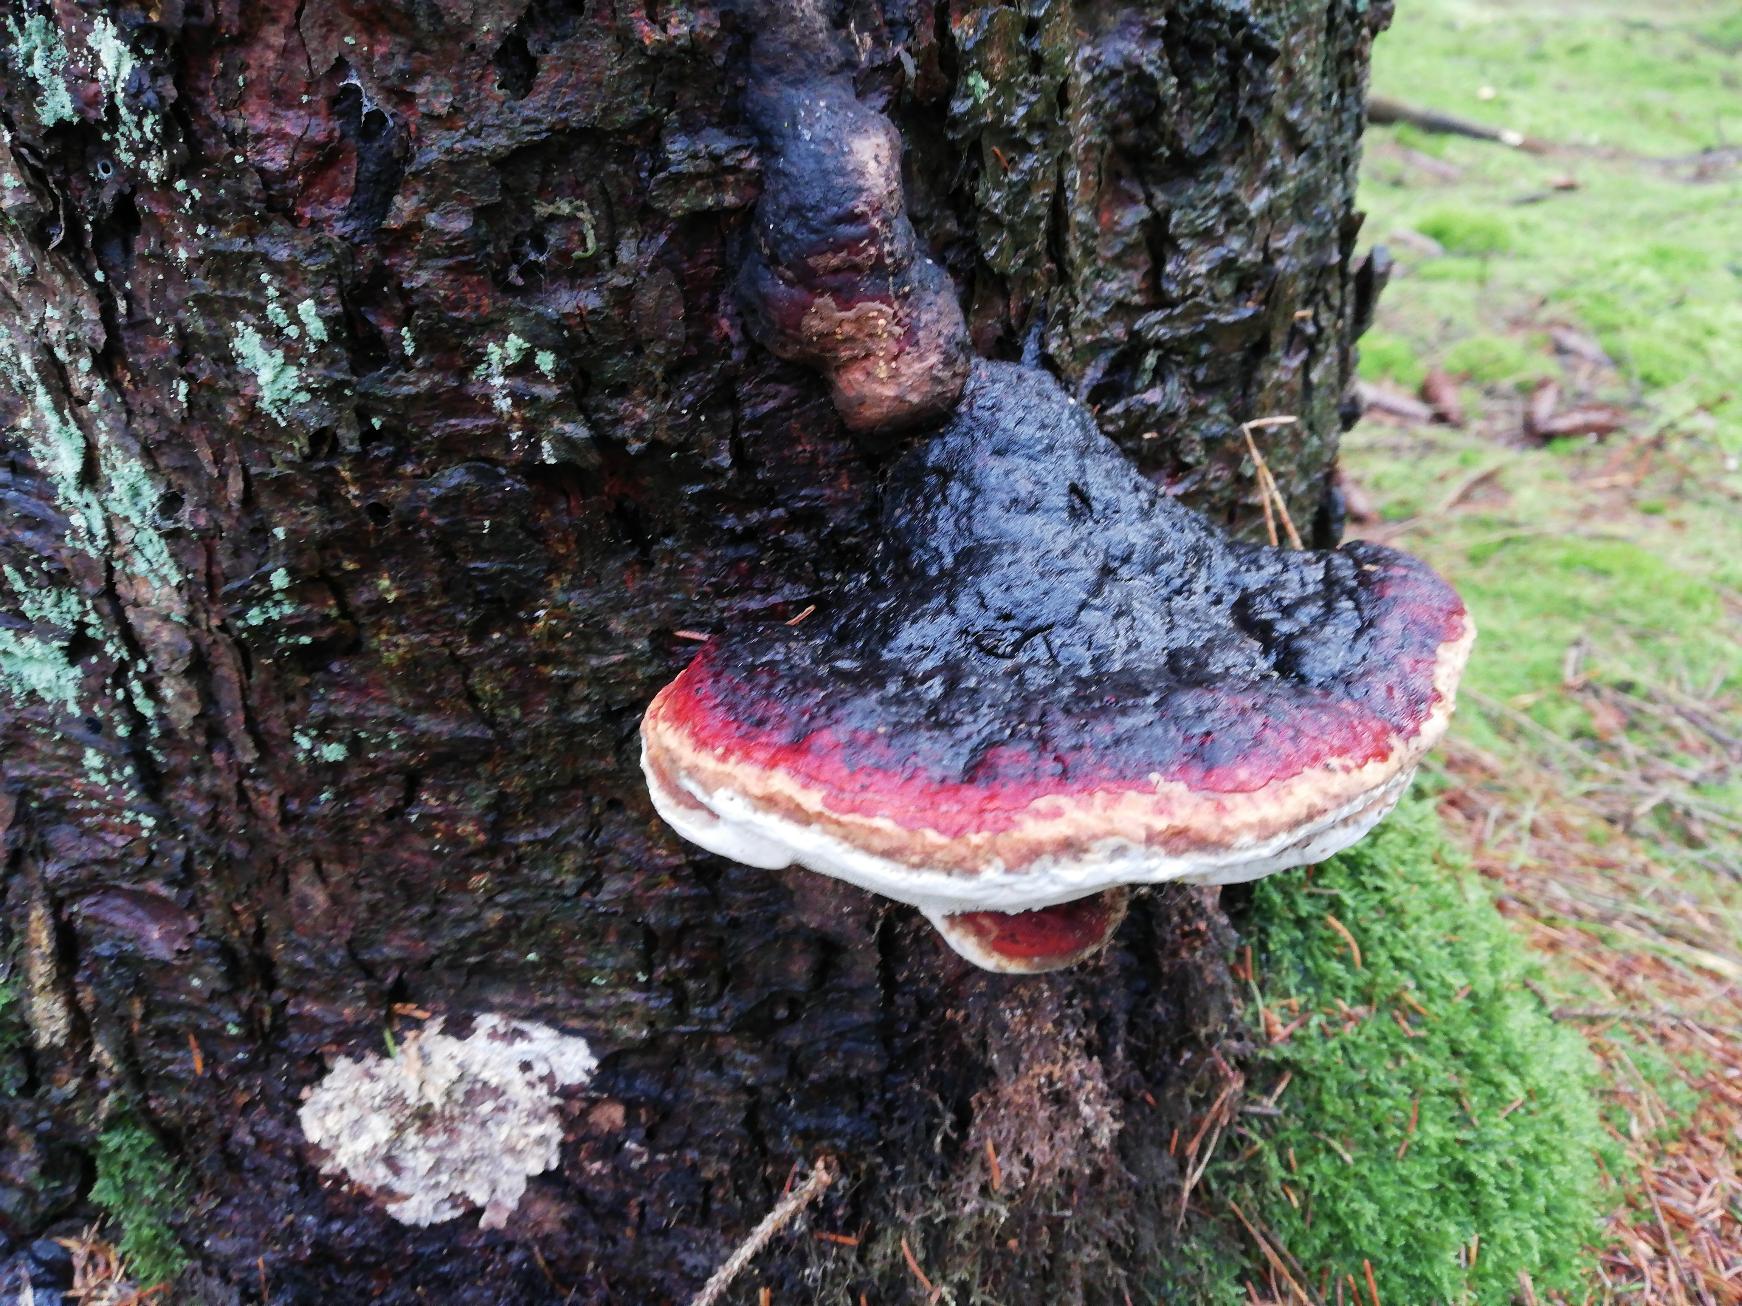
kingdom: Fungi
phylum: Basidiomycota
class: Agaricomycetes
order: Polyporales
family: Fomitopsidaceae
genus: Fomitopsis
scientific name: Fomitopsis pinicola
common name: Randbæltet hovporesvamp
